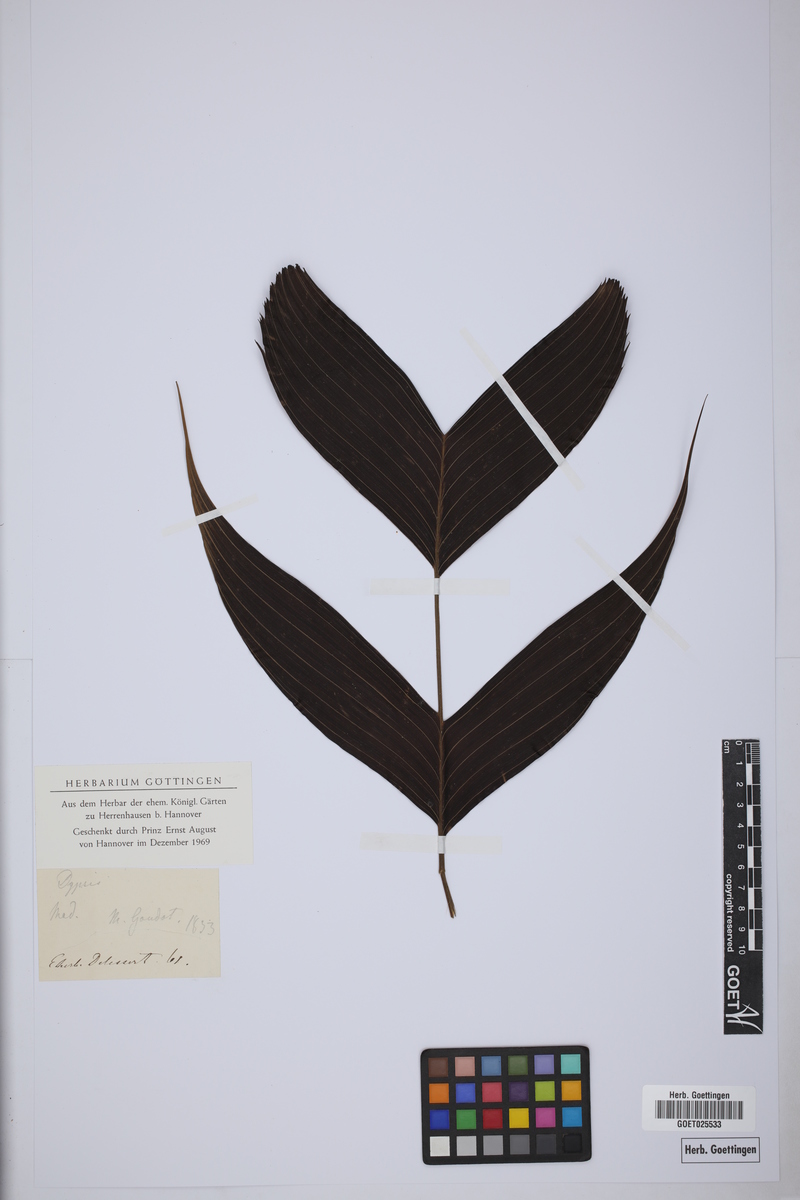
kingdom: Plantae
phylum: Tracheophyta
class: Liliopsida
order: Arecales
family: Arecaceae
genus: Dypsis
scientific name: Dypsis
